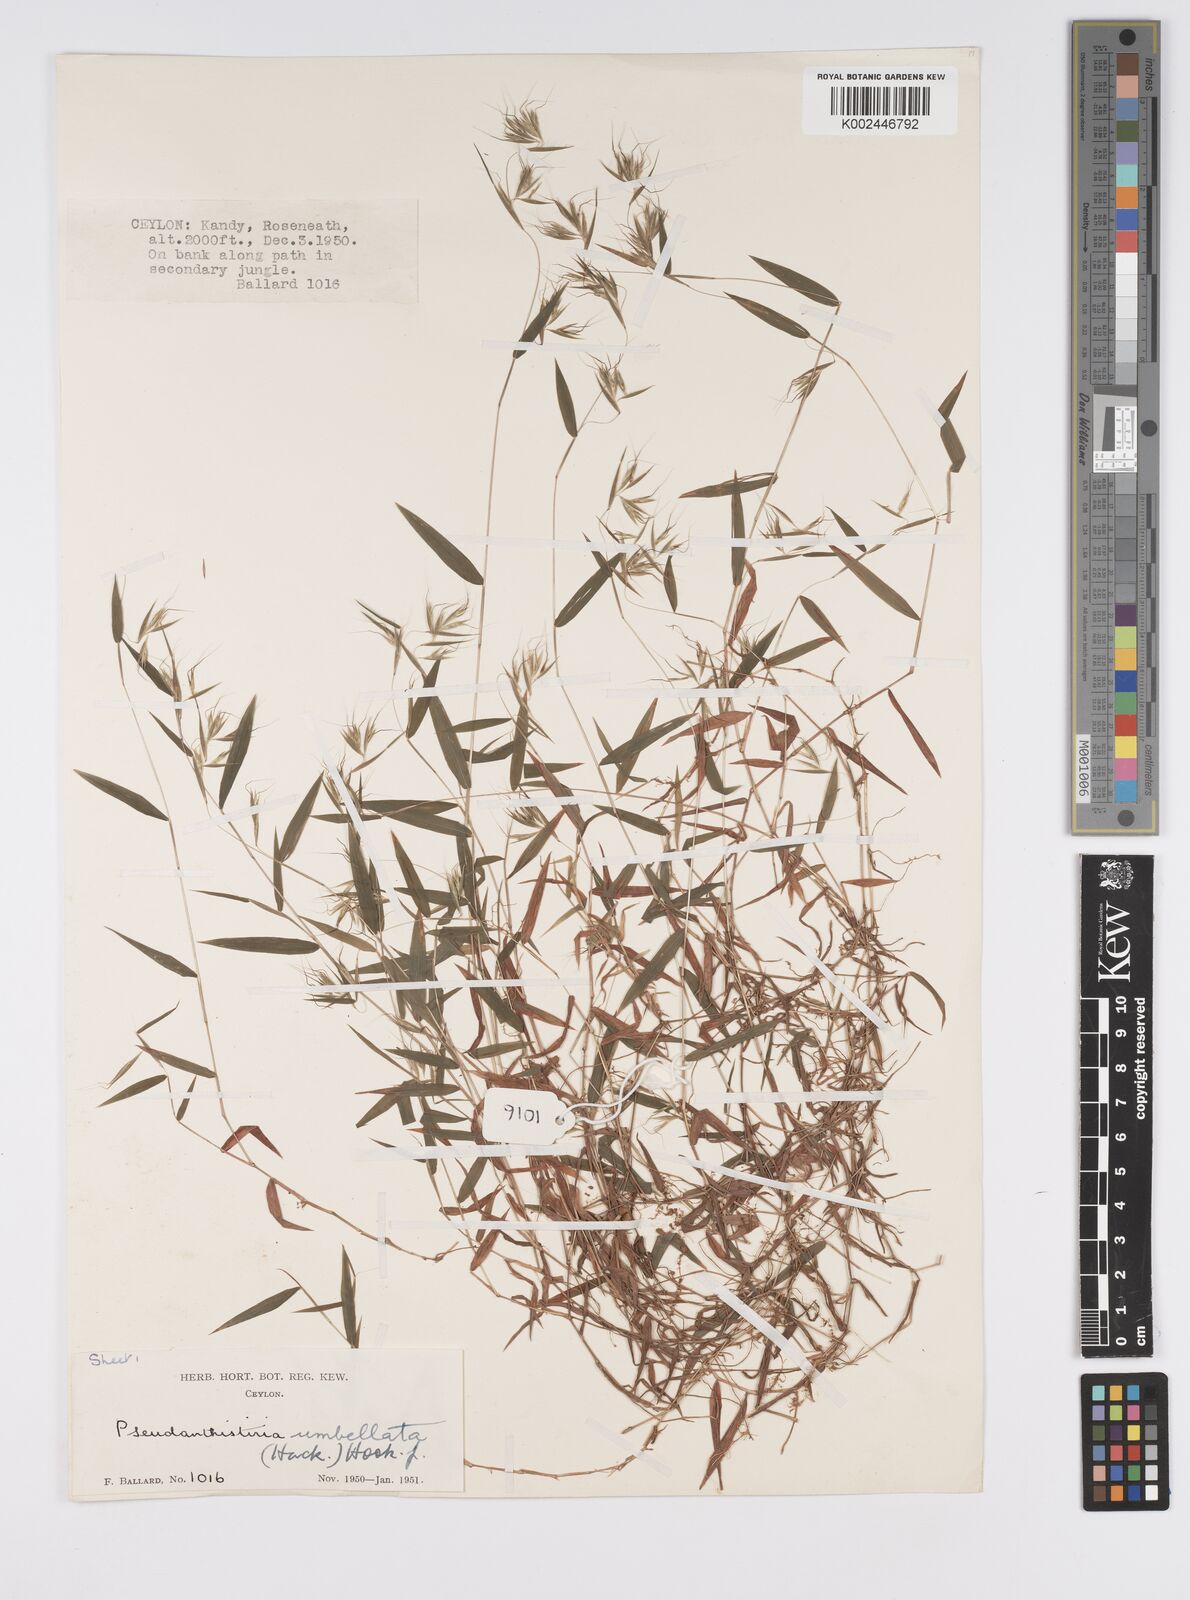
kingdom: Plantae
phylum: Tracheophyta
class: Liliopsida
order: Poales
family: Poaceae
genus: Pseudanthistiria
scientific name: Pseudanthistiria umbellata
